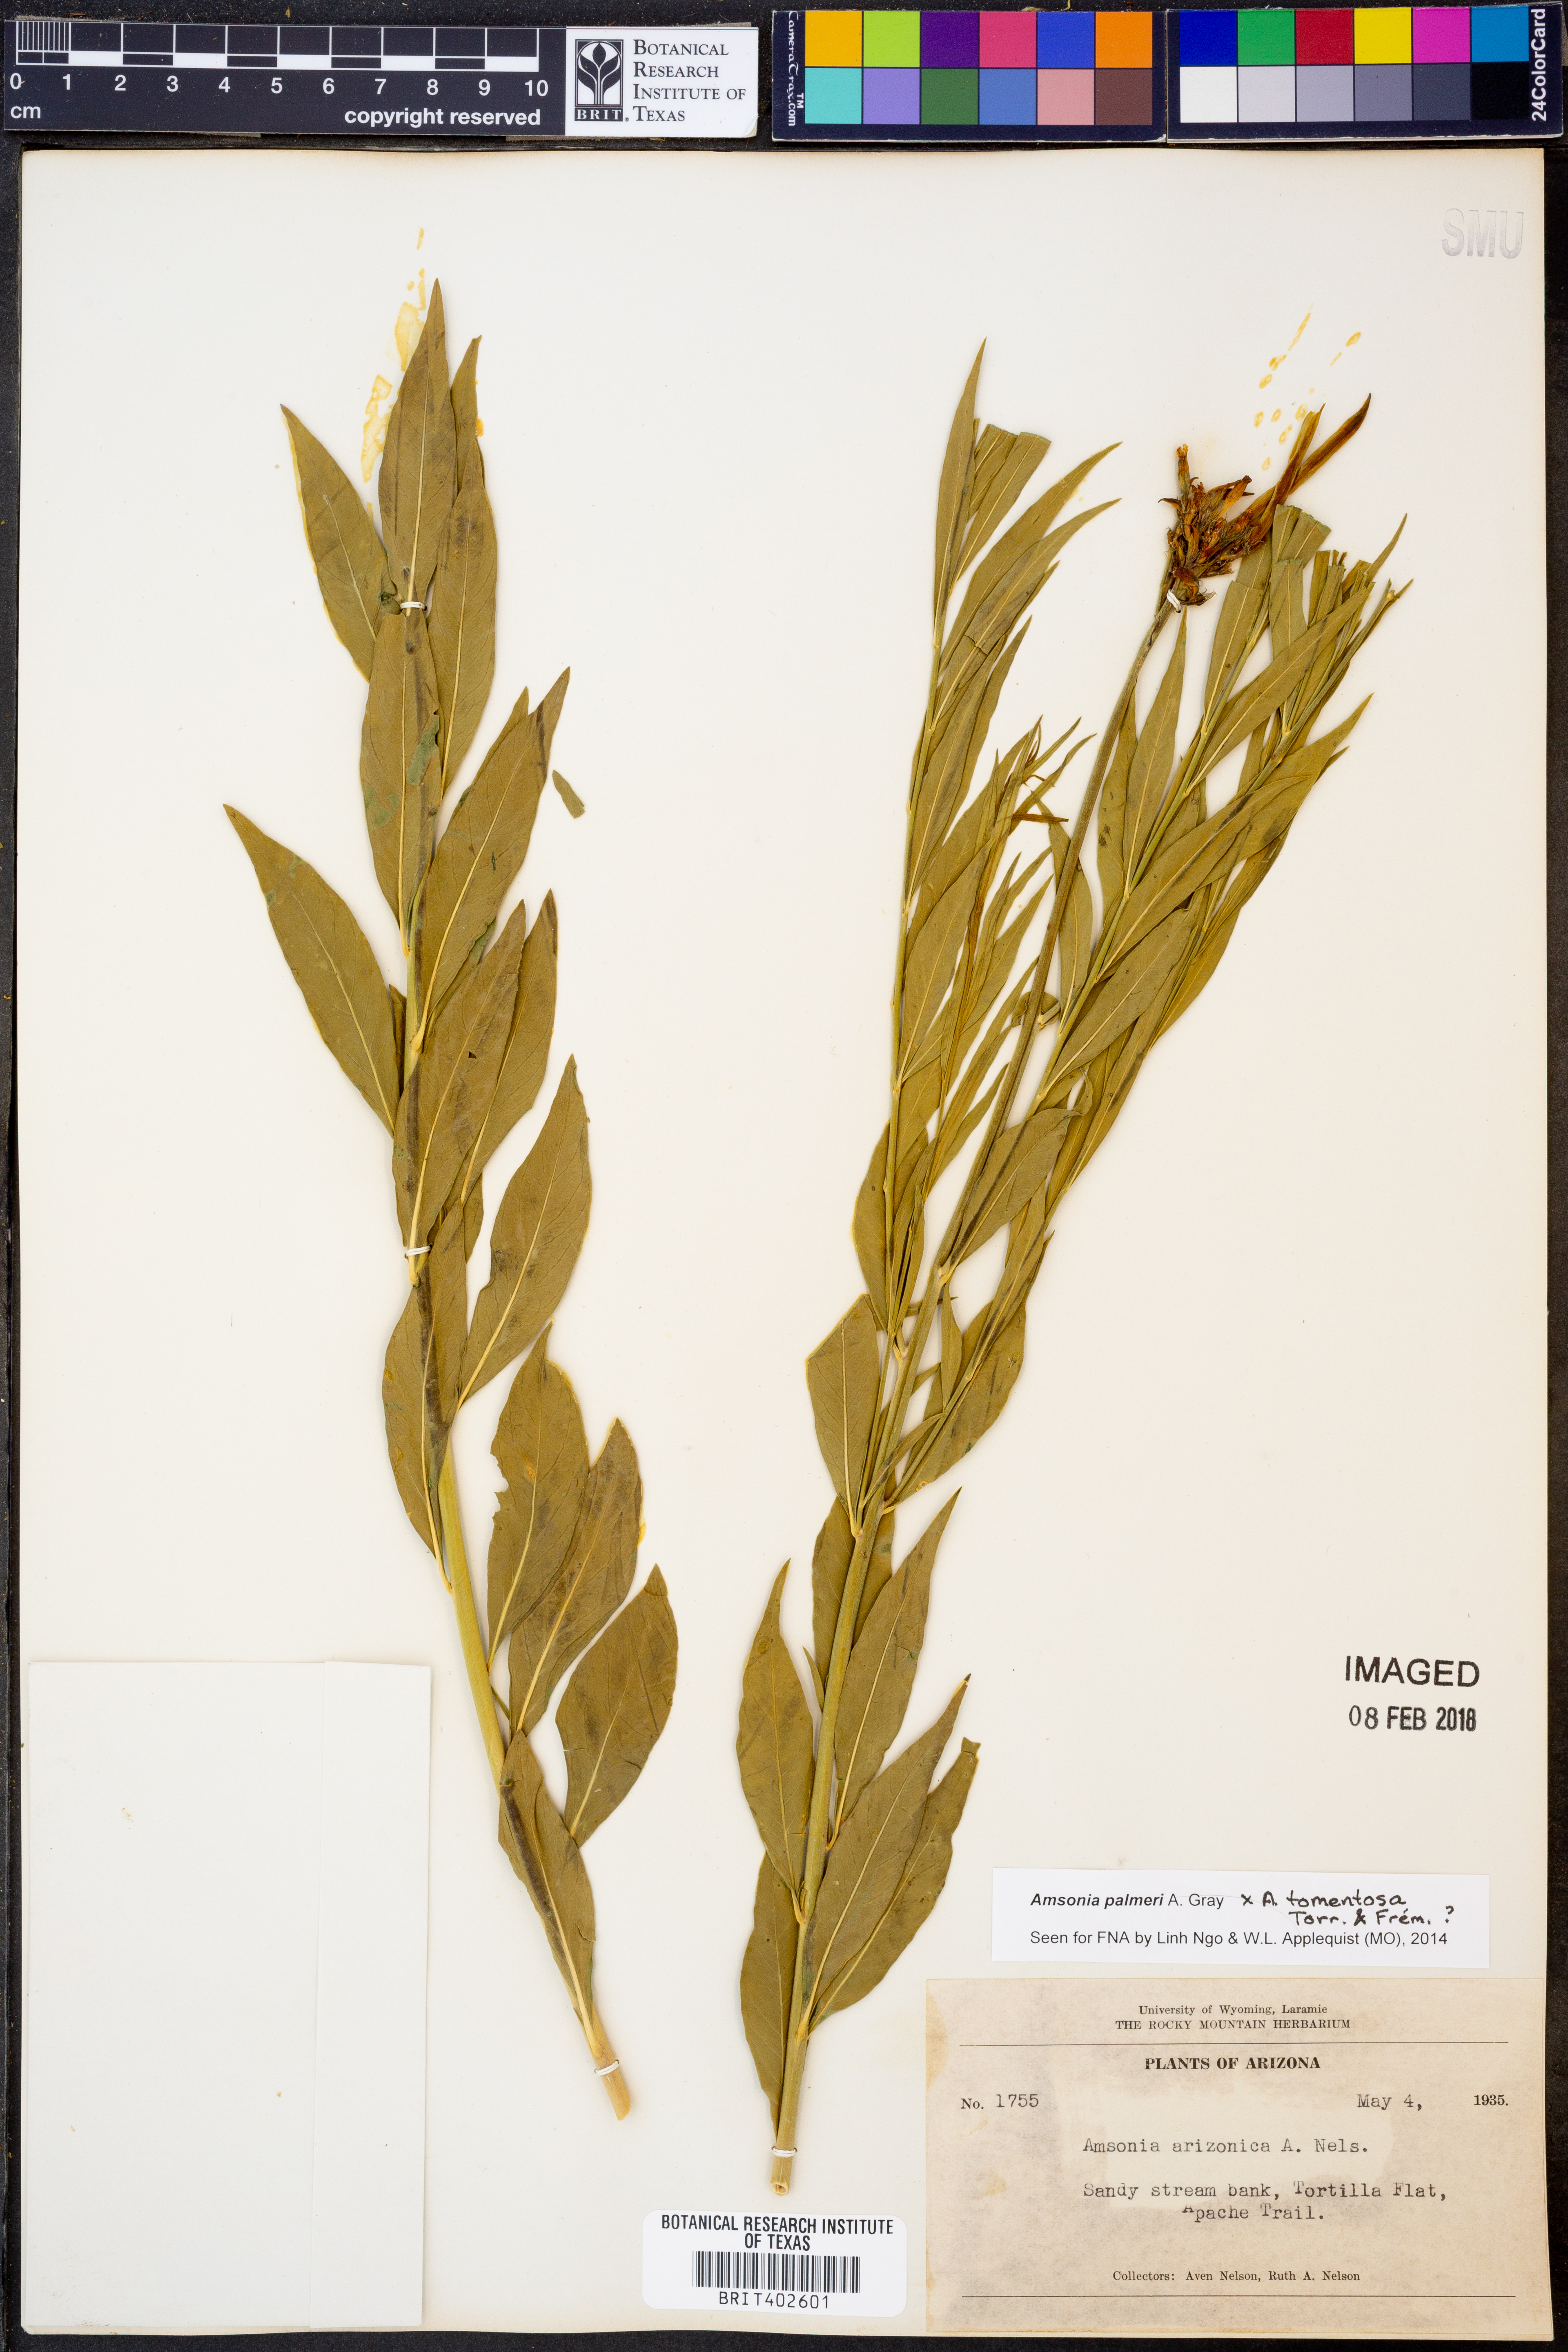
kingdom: Plantae
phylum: Tracheophyta
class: Magnoliopsida
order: Gentianales
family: Apocynaceae
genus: Amsonia
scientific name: Amsonia palmeri
